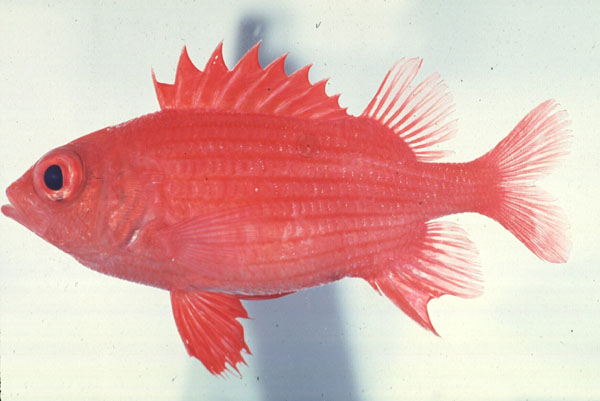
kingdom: Animalia
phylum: Chordata
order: Beryciformes
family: Holocentridae
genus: Sargocentron
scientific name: Sargocentron inaequalis
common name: Lattice squirrelfish
